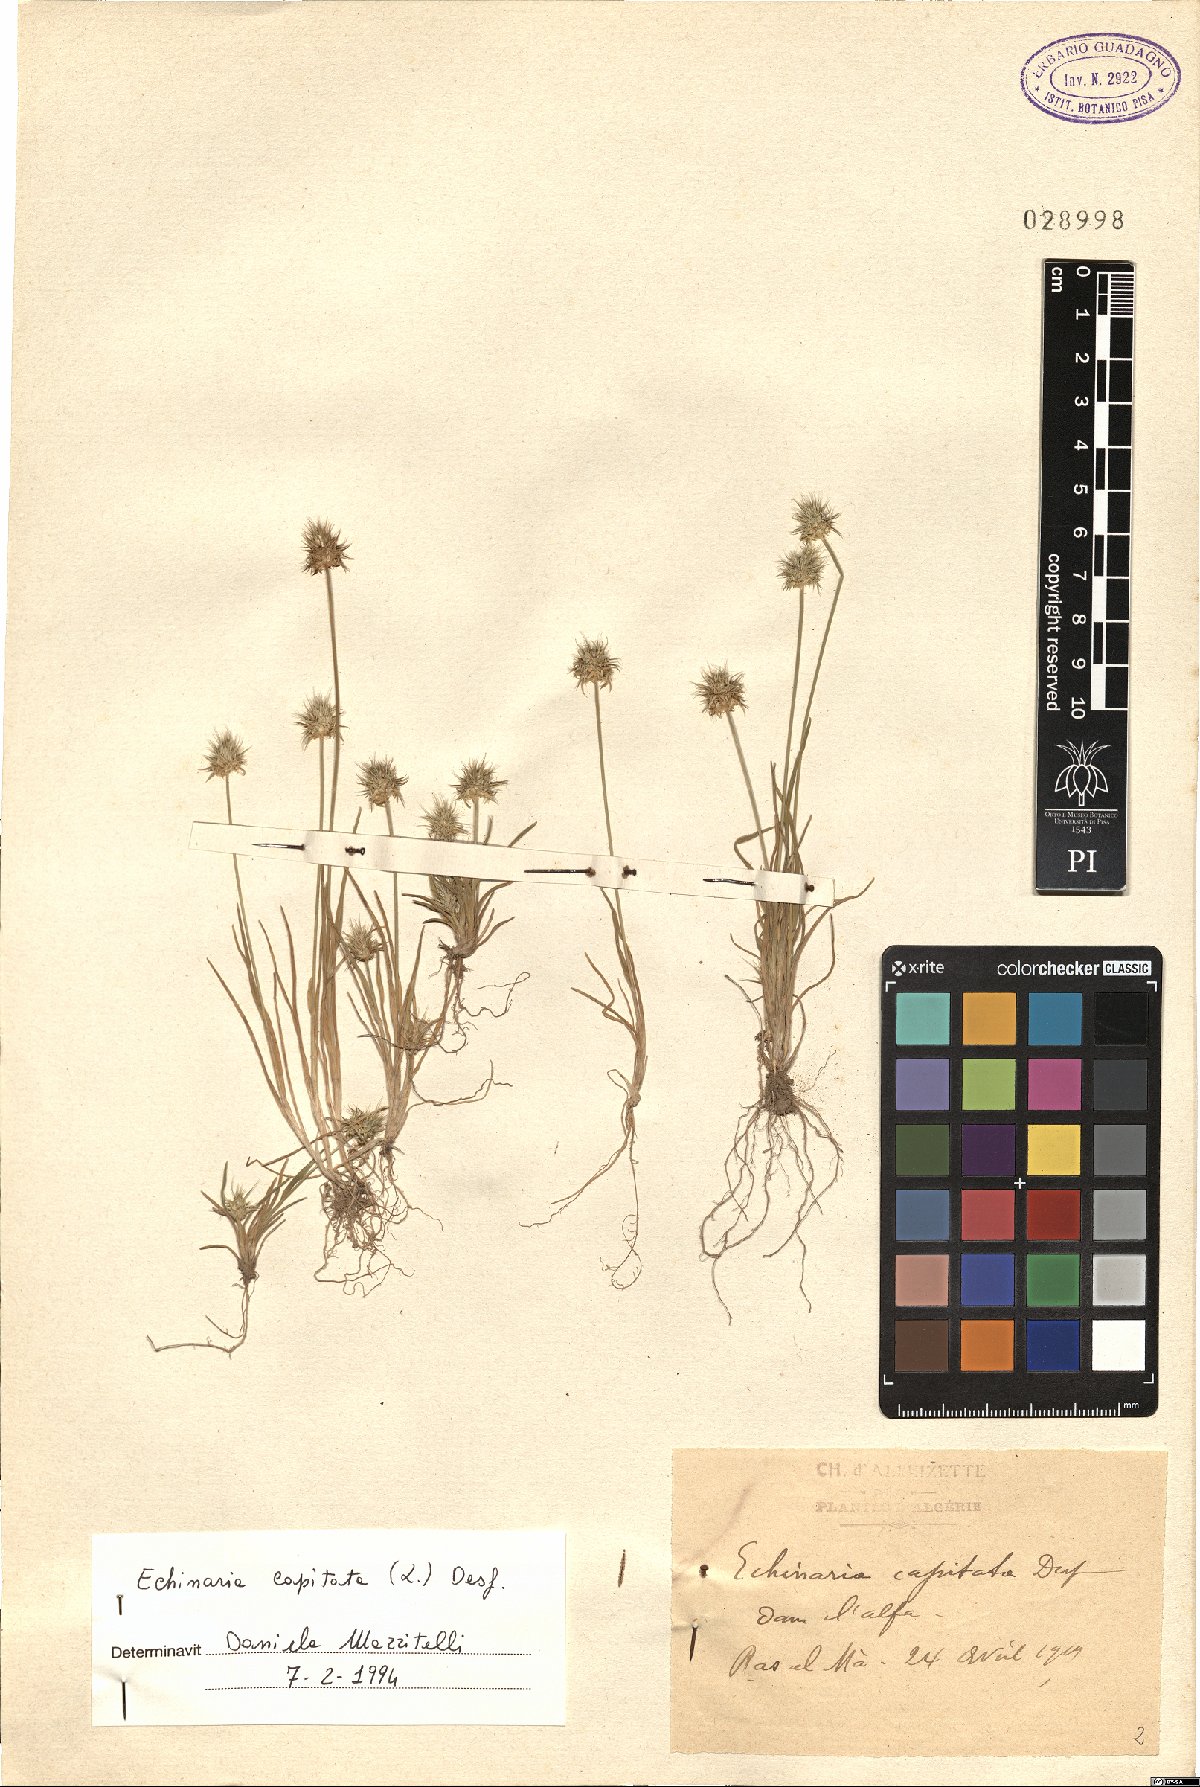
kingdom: Plantae
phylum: Tracheophyta
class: Liliopsida
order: Poales
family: Poaceae
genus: Echinaria
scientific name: Echinaria capitata
